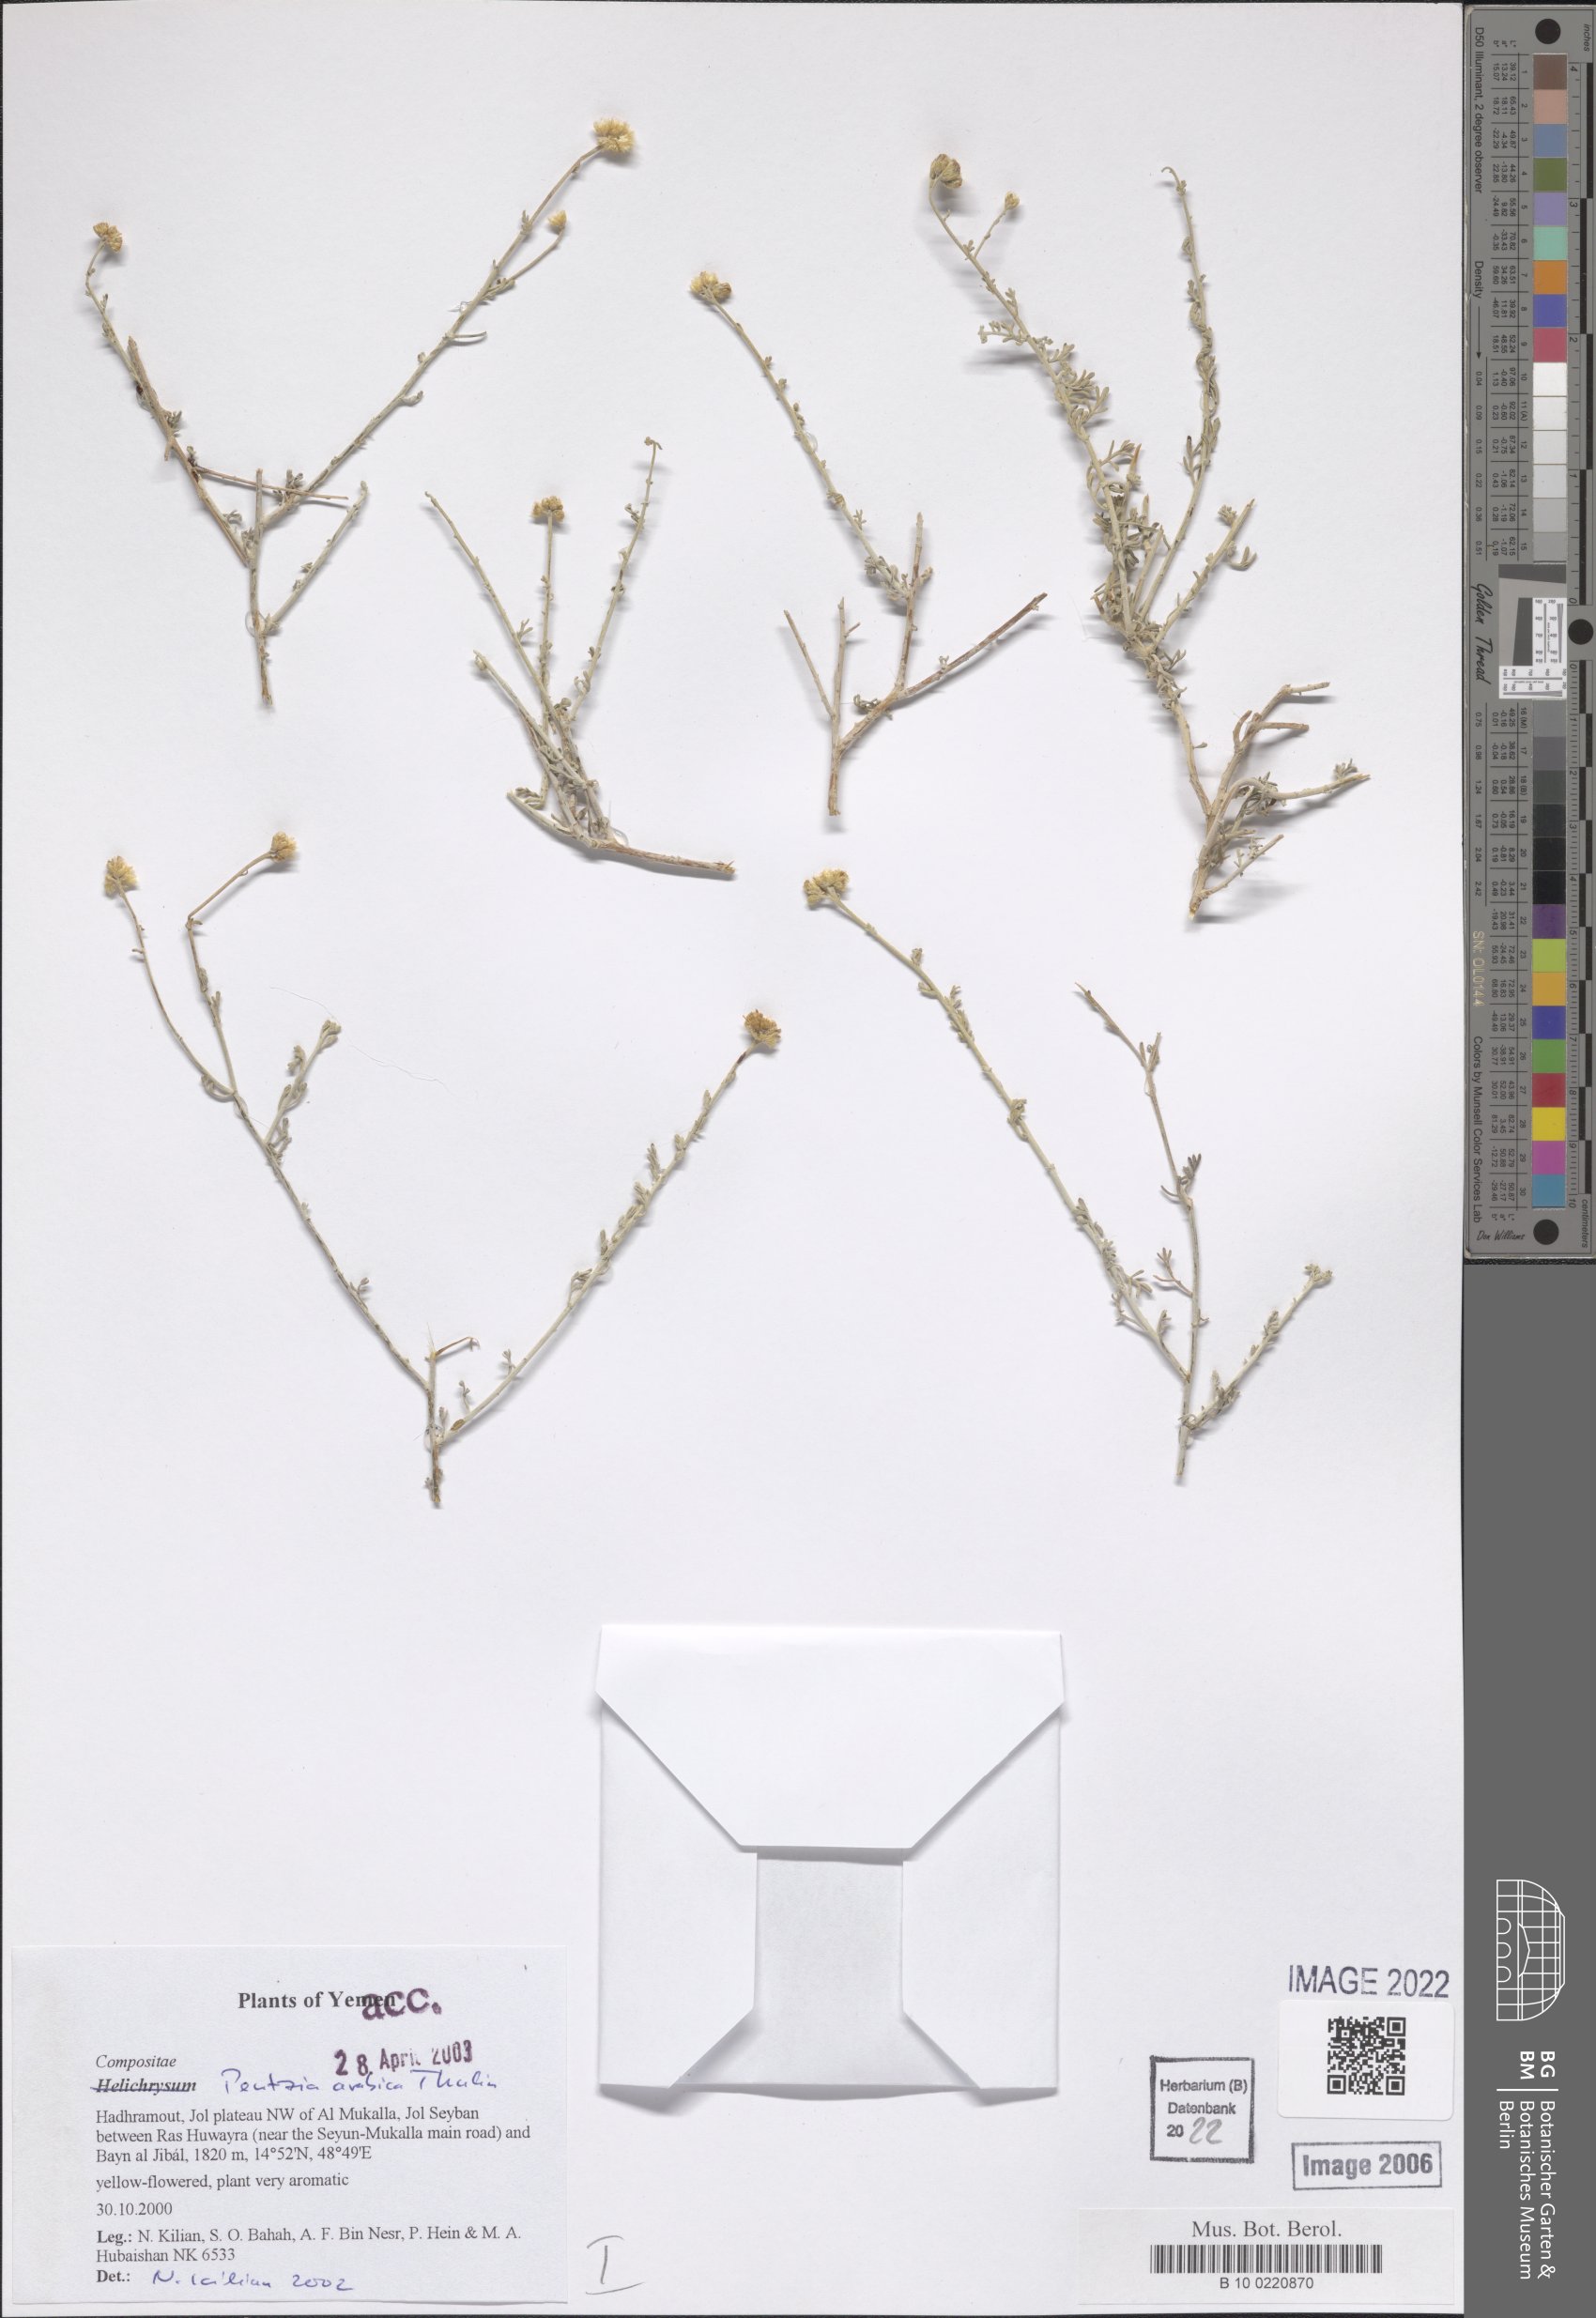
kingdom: Plantae
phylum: Tracheophyta
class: Magnoliopsida
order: Asterales
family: Asteraceae
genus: Pentzia
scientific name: Pentzia arabica
